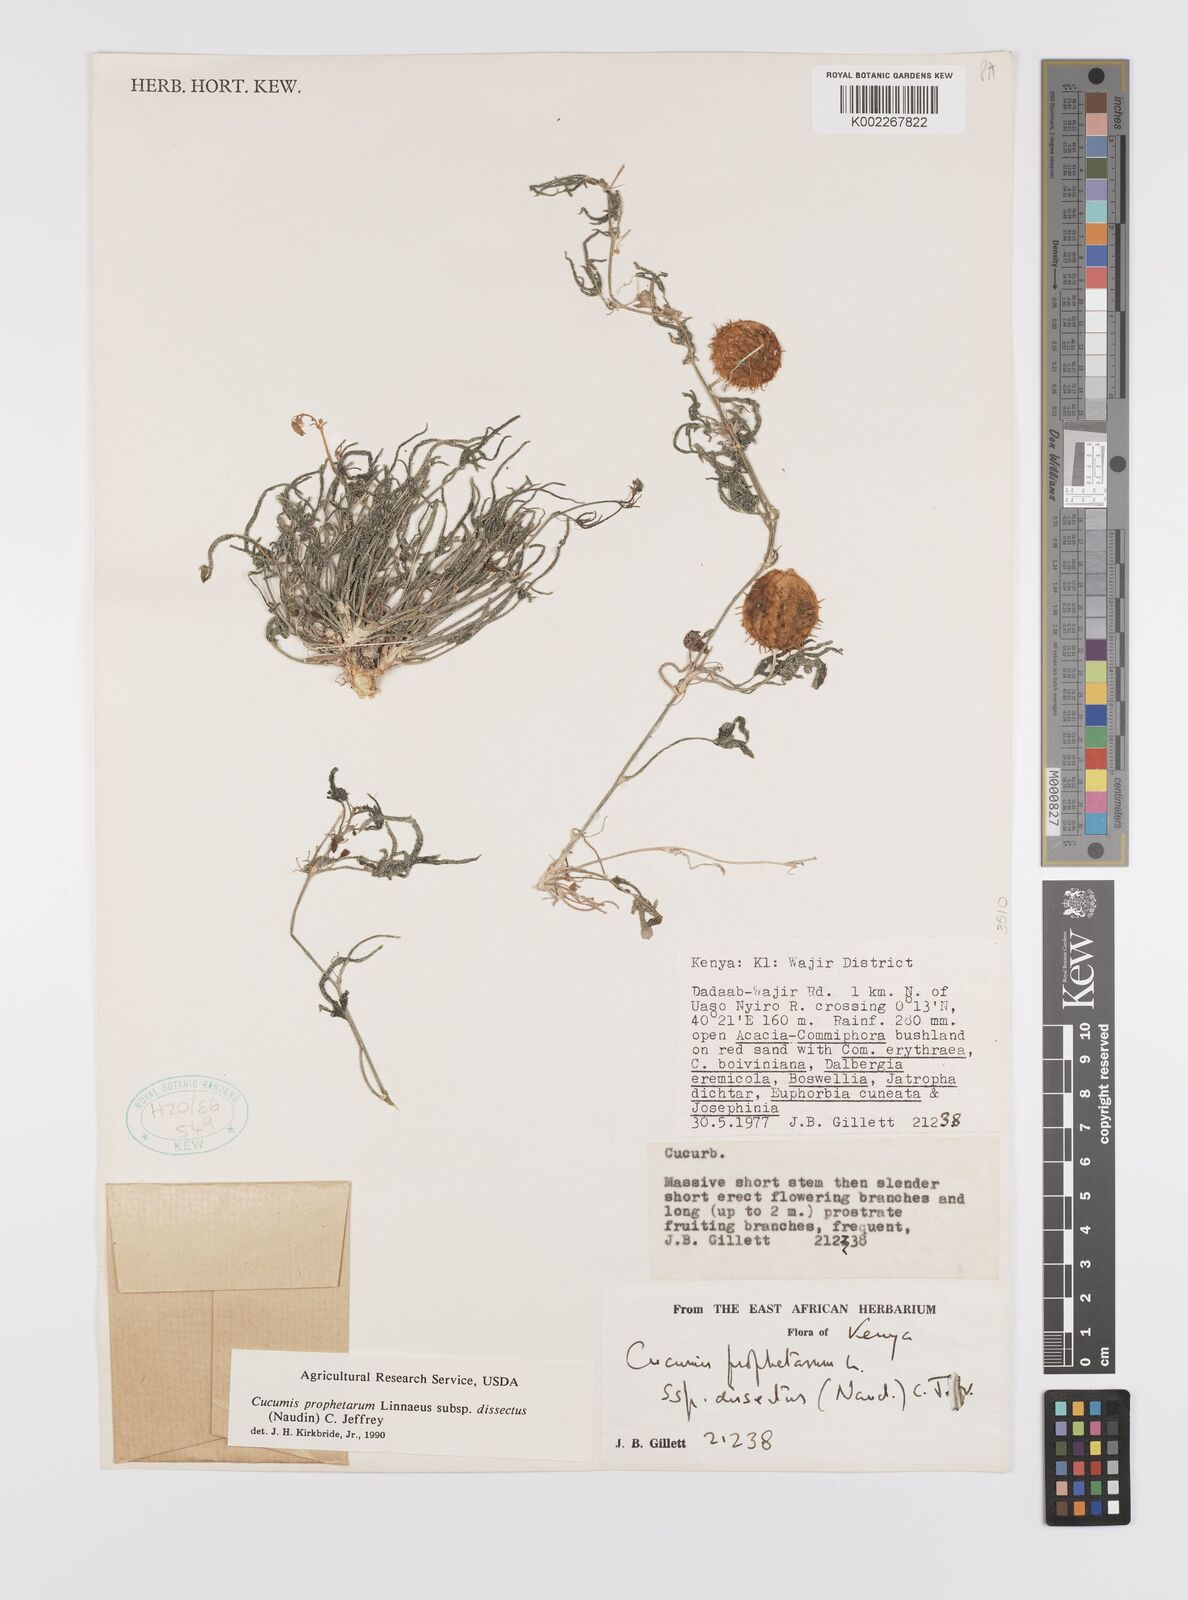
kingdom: Plantae
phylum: Tracheophyta
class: Magnoliopsida
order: Cucurbitales
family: Cucurbitaceae
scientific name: Cucurbitaceae
